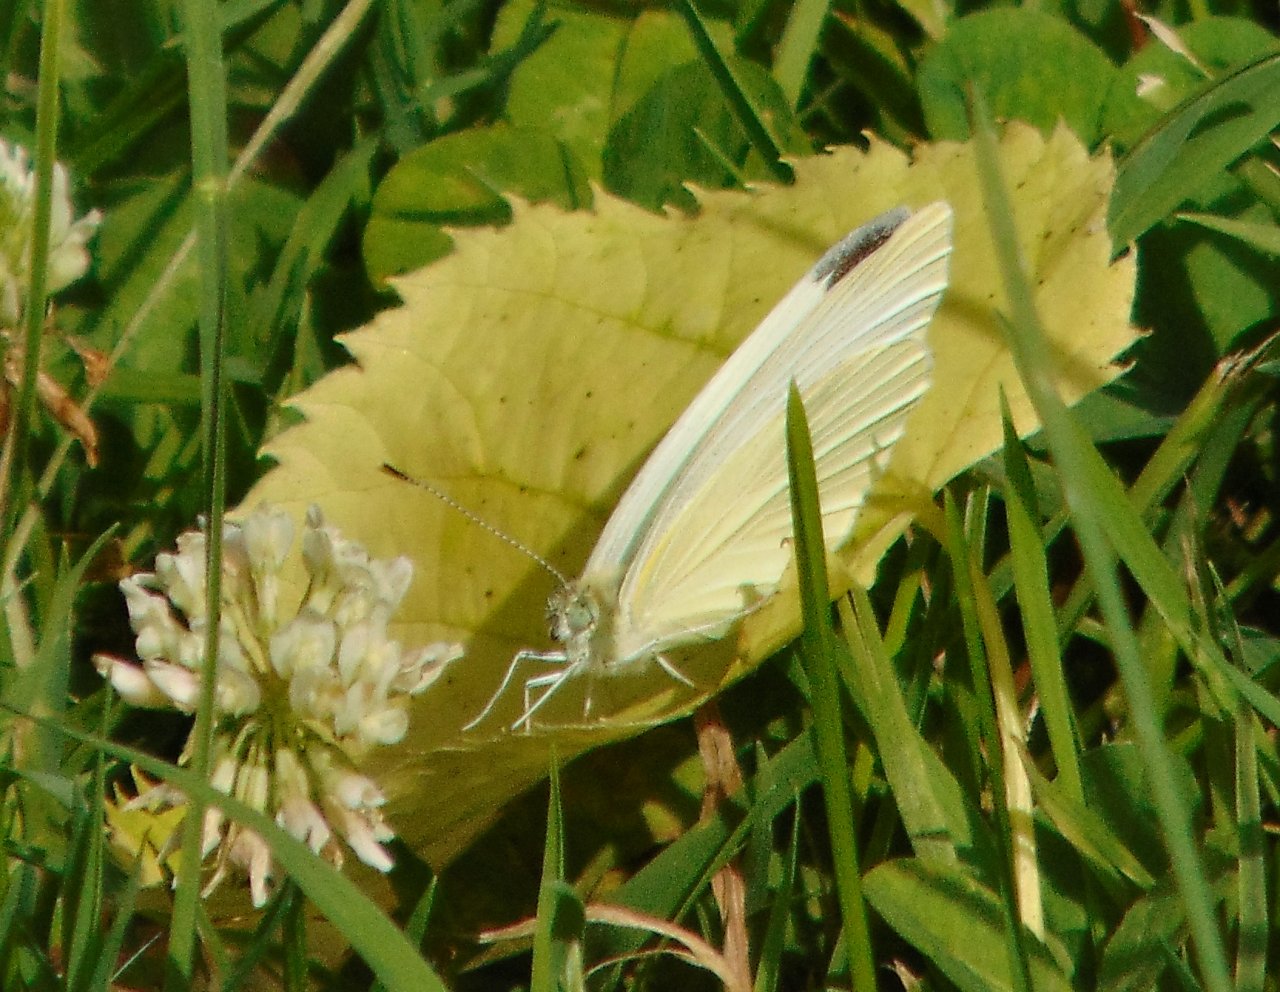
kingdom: Animalia
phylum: Arthropoda
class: Insecta
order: Lepidoptera
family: Pieridae
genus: Pieris
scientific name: Pieris rapae
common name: Cabbage White
